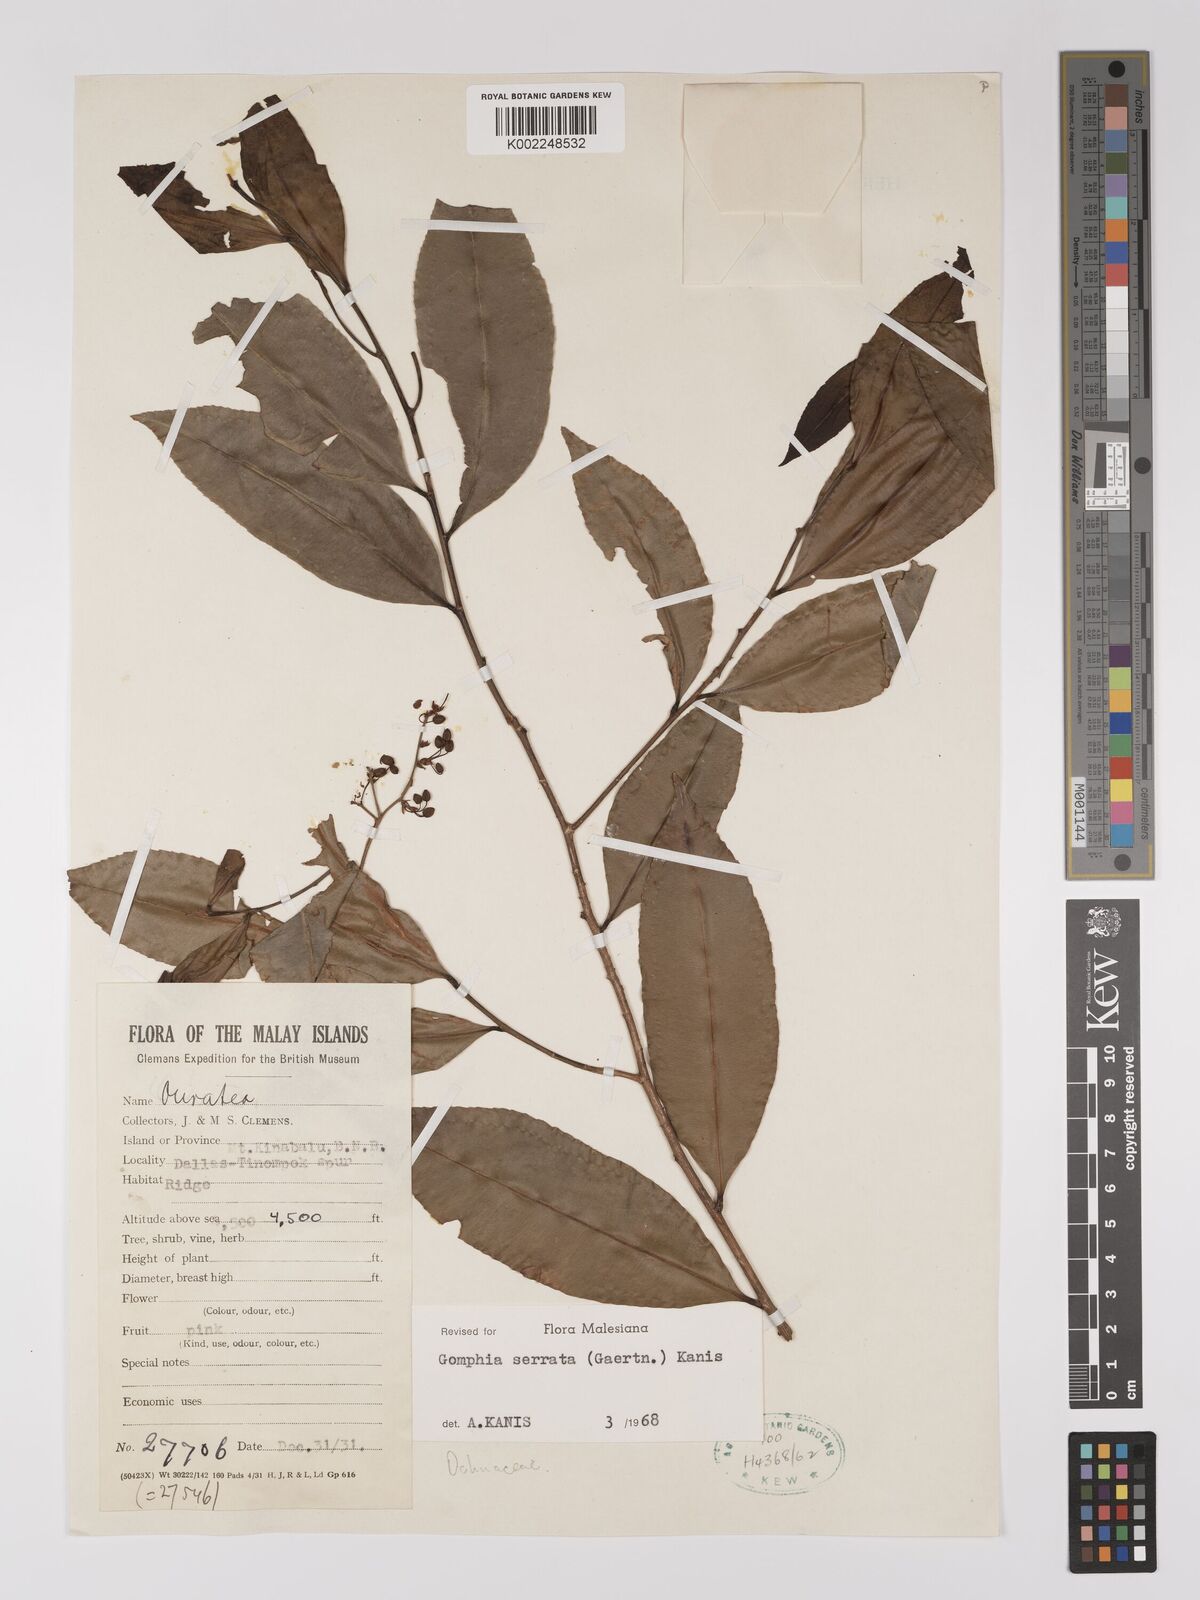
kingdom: Plantae
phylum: Tracheophyta
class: Magnoliopsida
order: Malpighiales
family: Ochnaceae
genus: Gomphia
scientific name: Gomphia serrata
